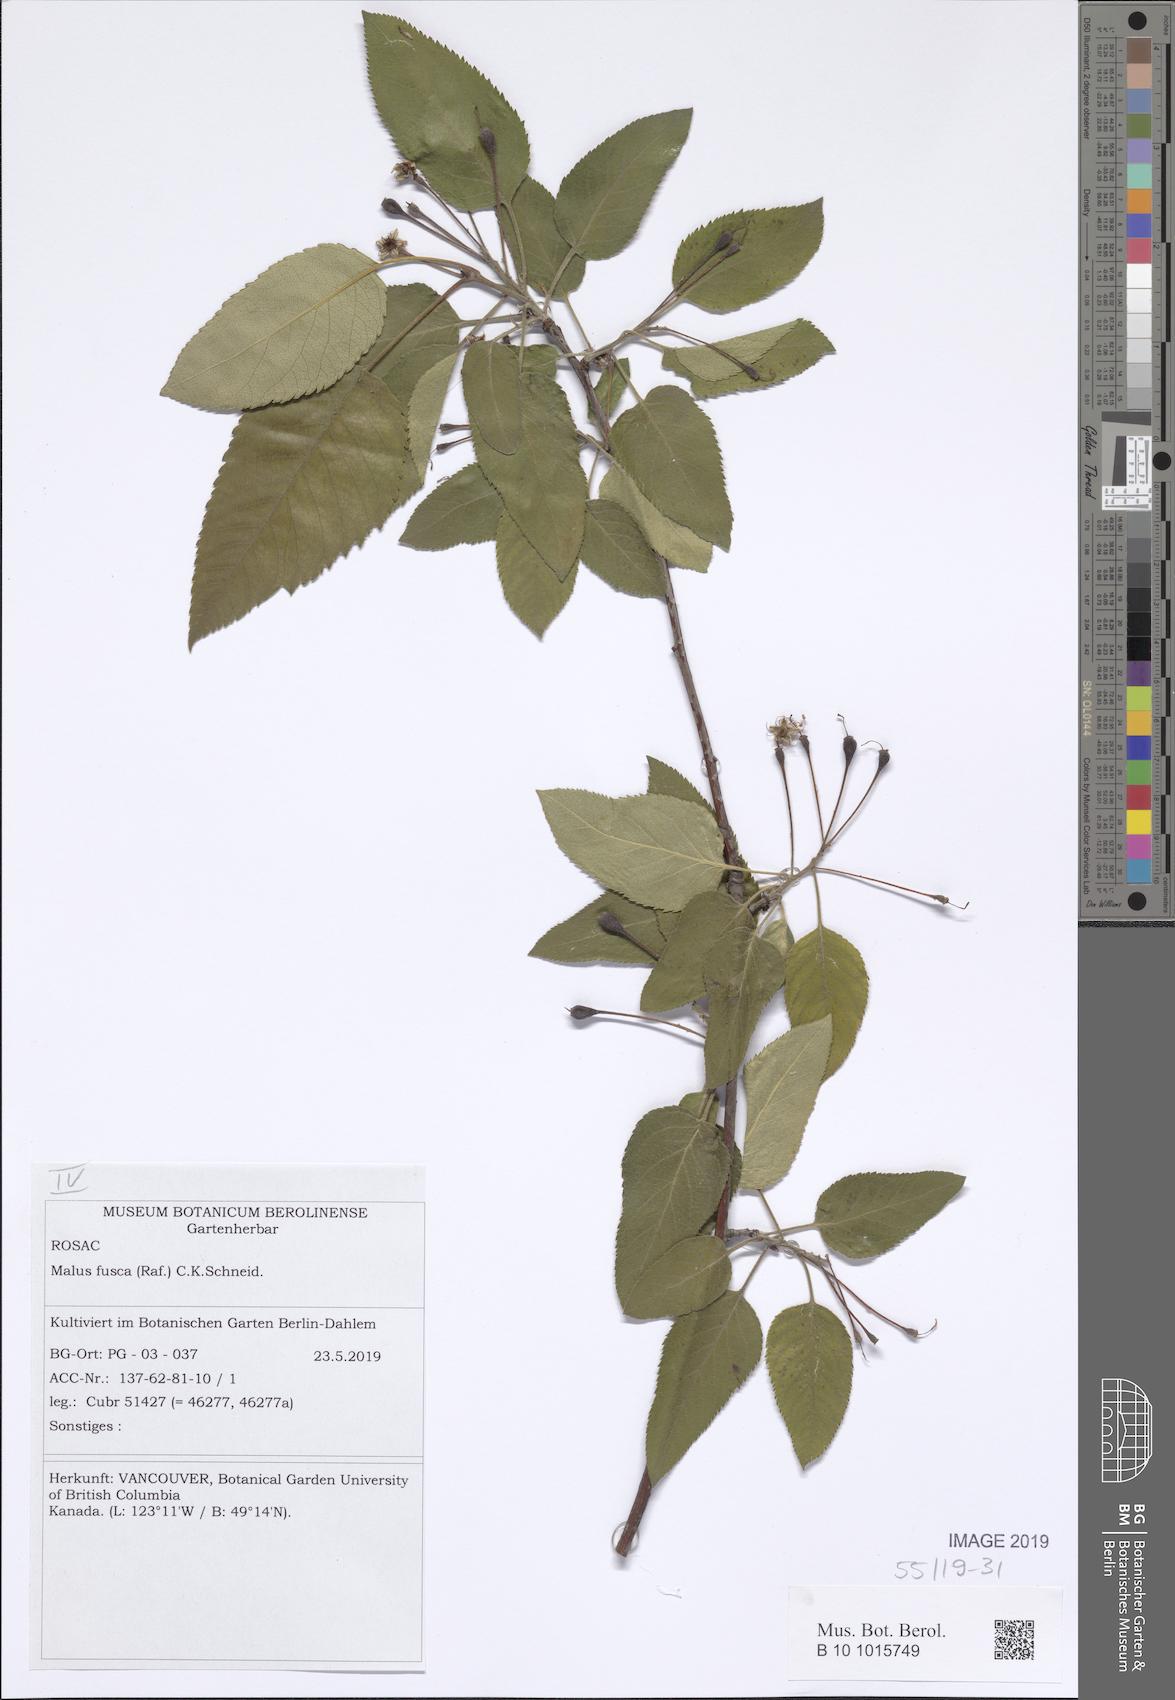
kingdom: Plantae
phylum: Tracheophyta
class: Magnoliopsida
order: Rosales
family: Rosaceae
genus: Malus
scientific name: Malus fusca
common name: Oregon crab apple
